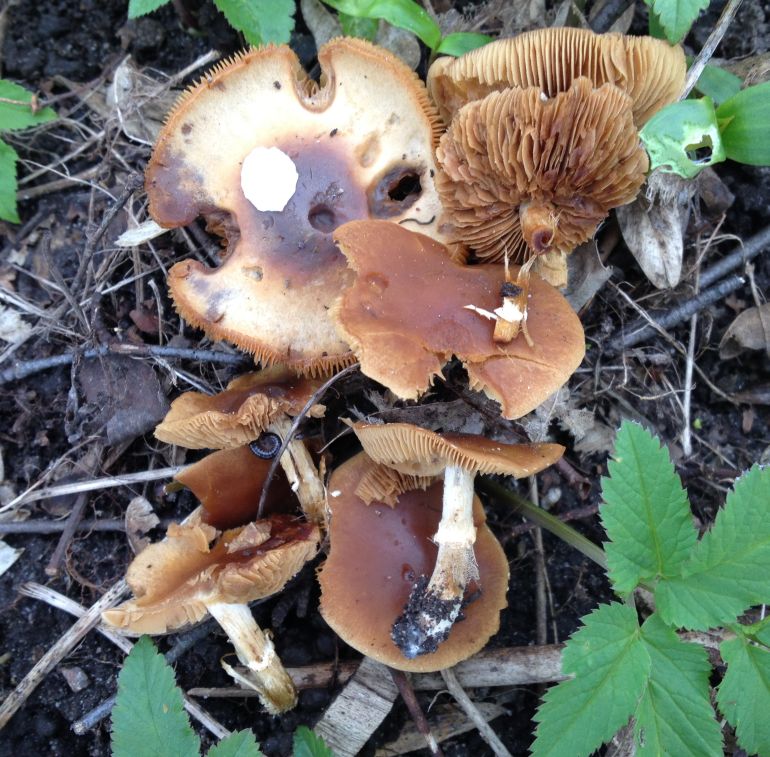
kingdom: Fungi
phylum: Basidiomycota
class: Agaricomycetes
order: Agaricales
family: Bolbitiaceae
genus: Conocybe
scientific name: Conocybe aporos
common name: tidlig dansehat
